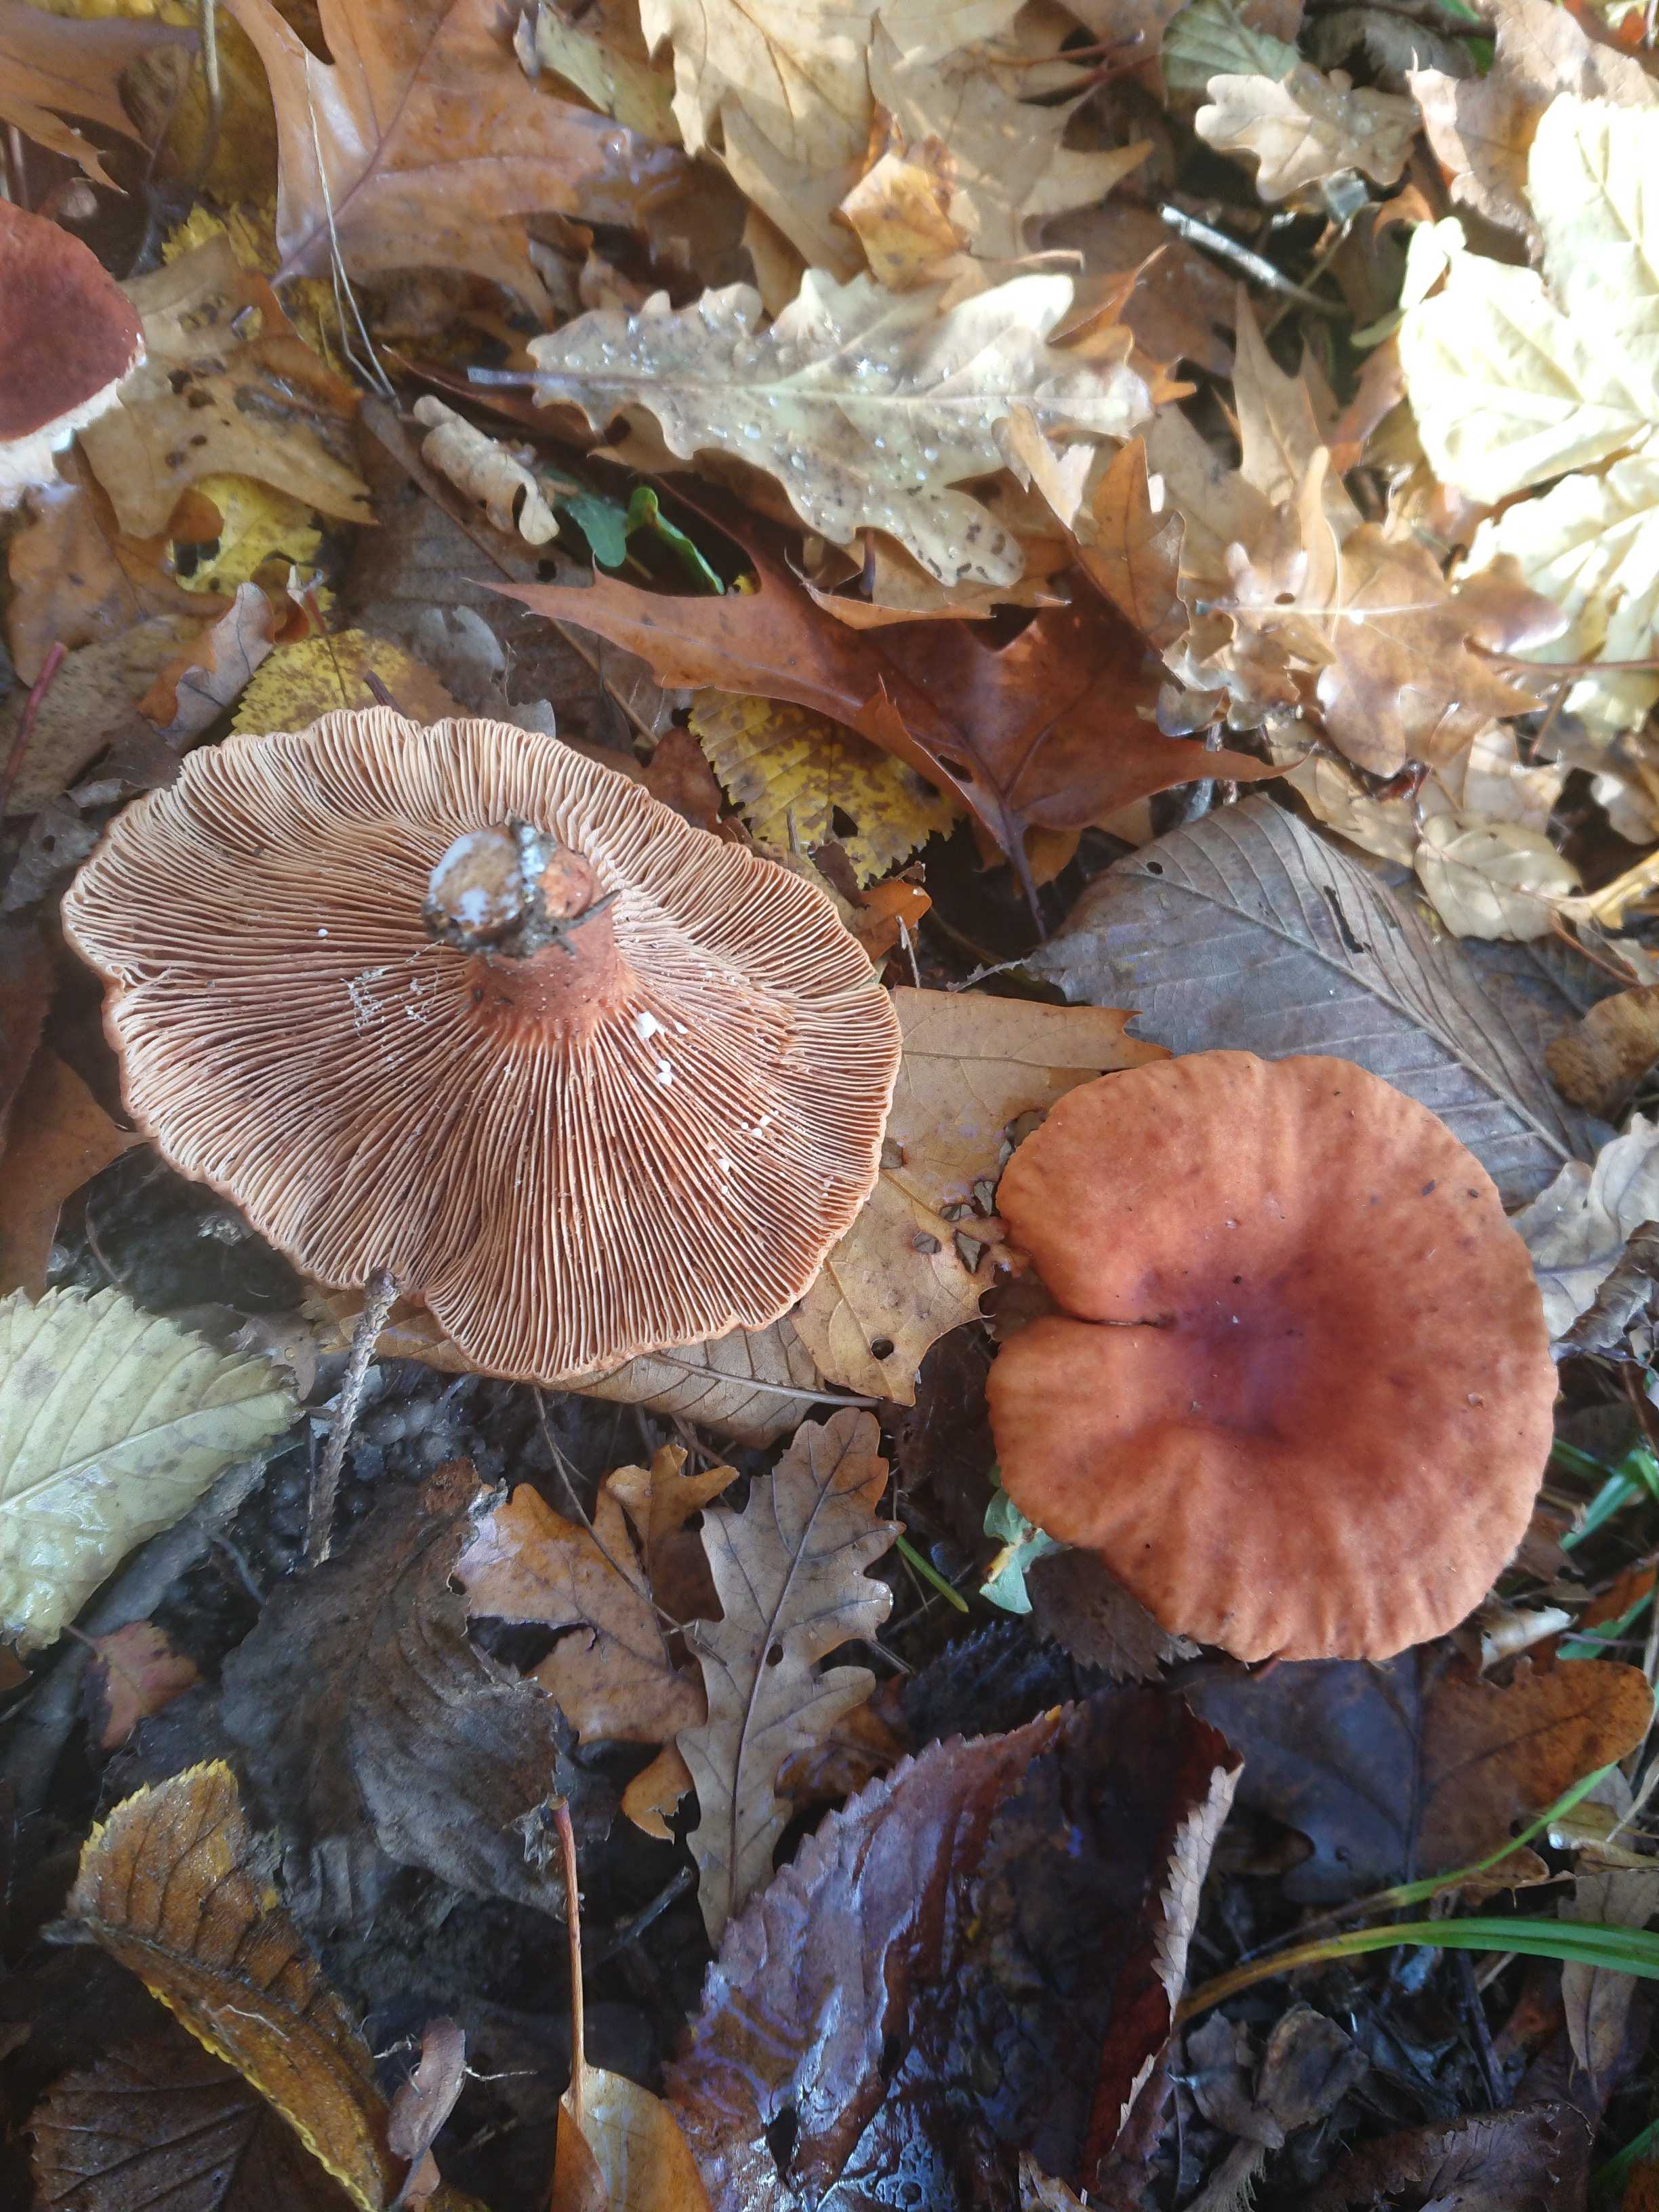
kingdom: Fungi
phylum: Basidiomycota
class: Agaricomycetes
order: Russulales
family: Russulaceae
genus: Lactarius
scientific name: Lactarius
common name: mælkehat
